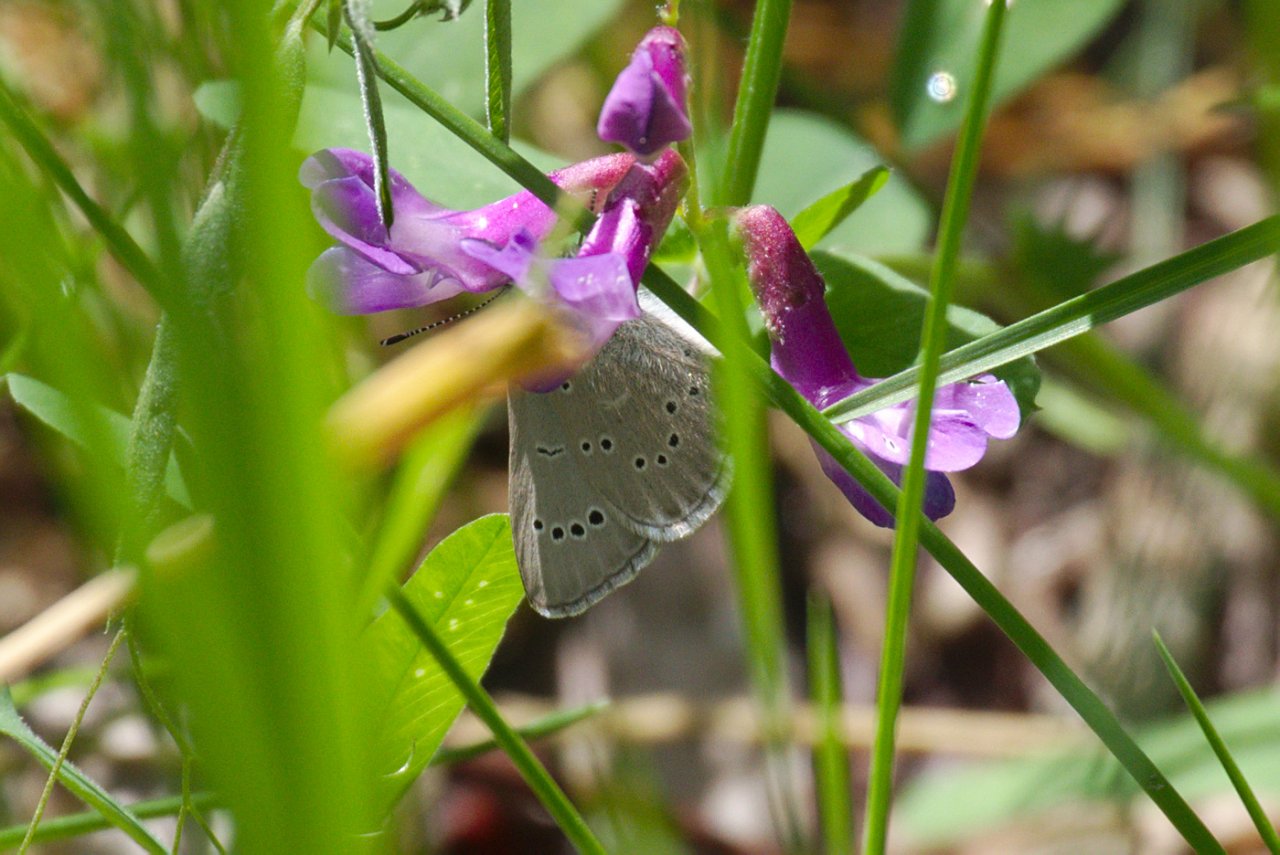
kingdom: Animalia
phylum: Arthropoda
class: Insecta
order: Lepidoptera
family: Lycaenidae
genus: Glaucopsyche
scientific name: Glaucopsyche lygdamus
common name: Silvery Blue
